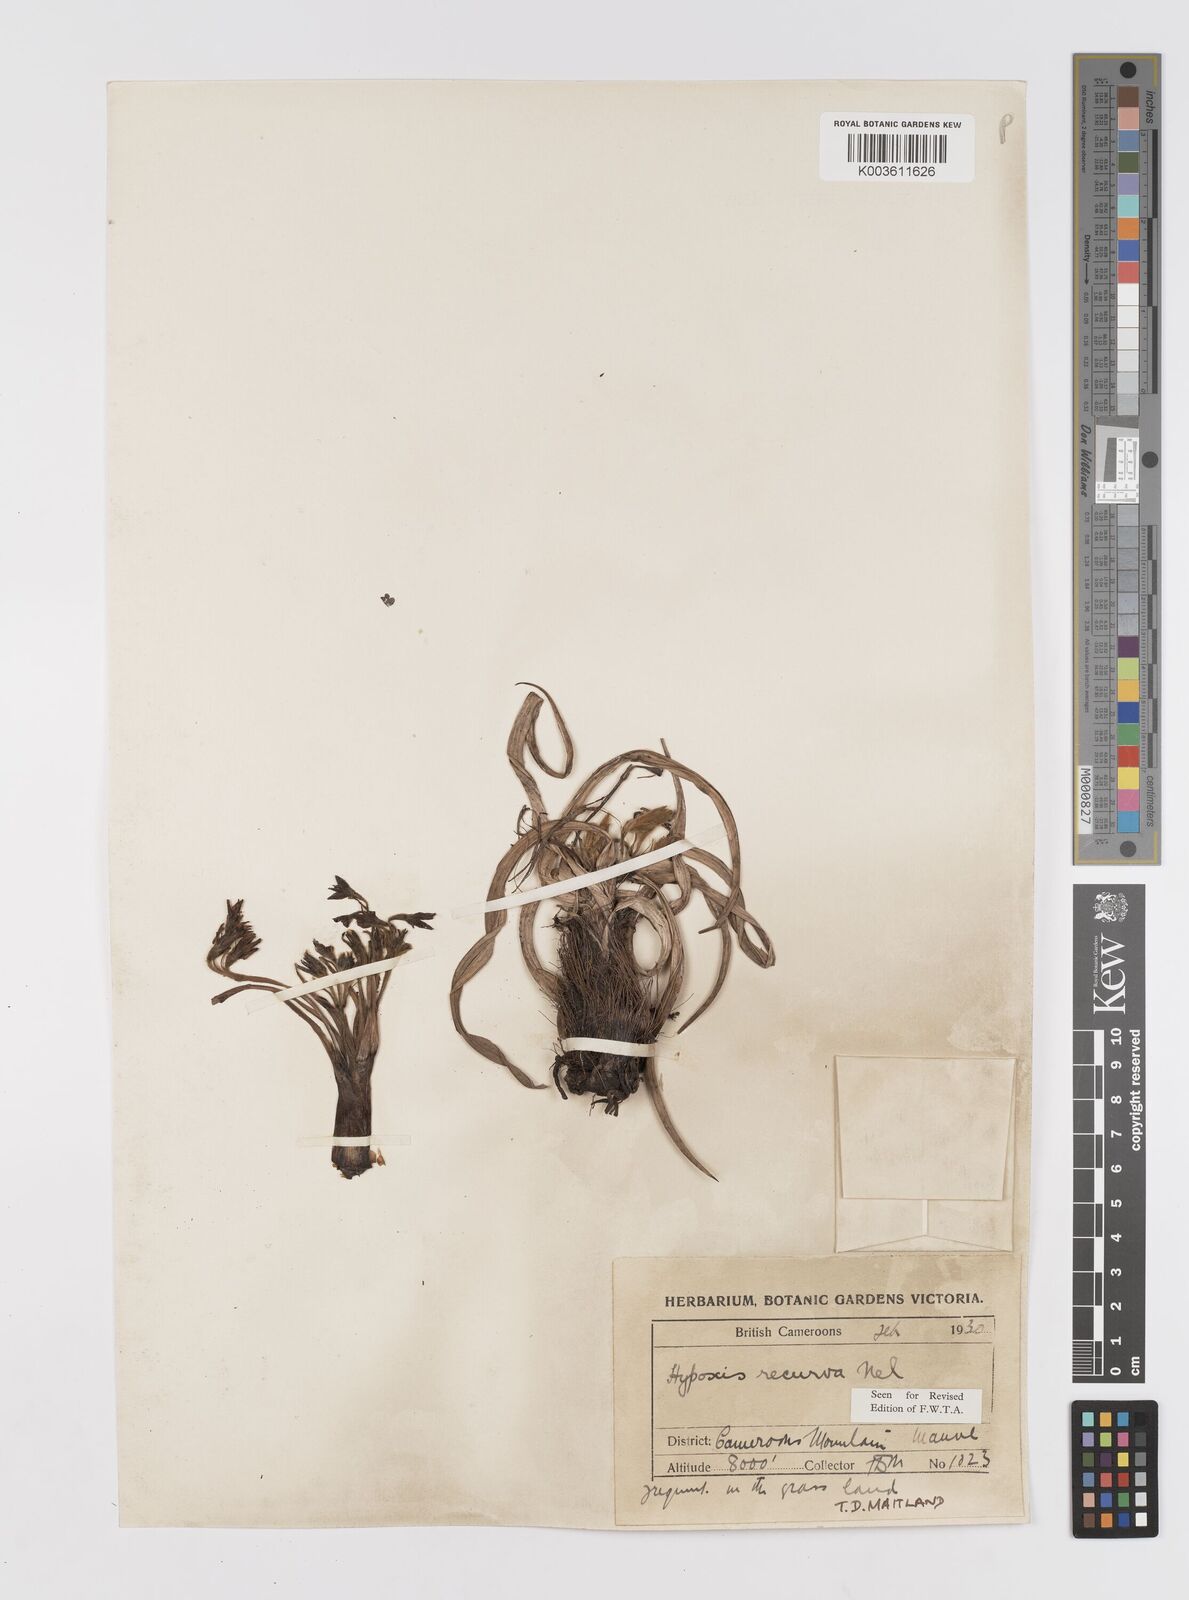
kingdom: Plantae
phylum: Tracheophyta
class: Liliopsida
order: Asparagales
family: Hypoxidaceae
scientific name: Hypoxidaceae
